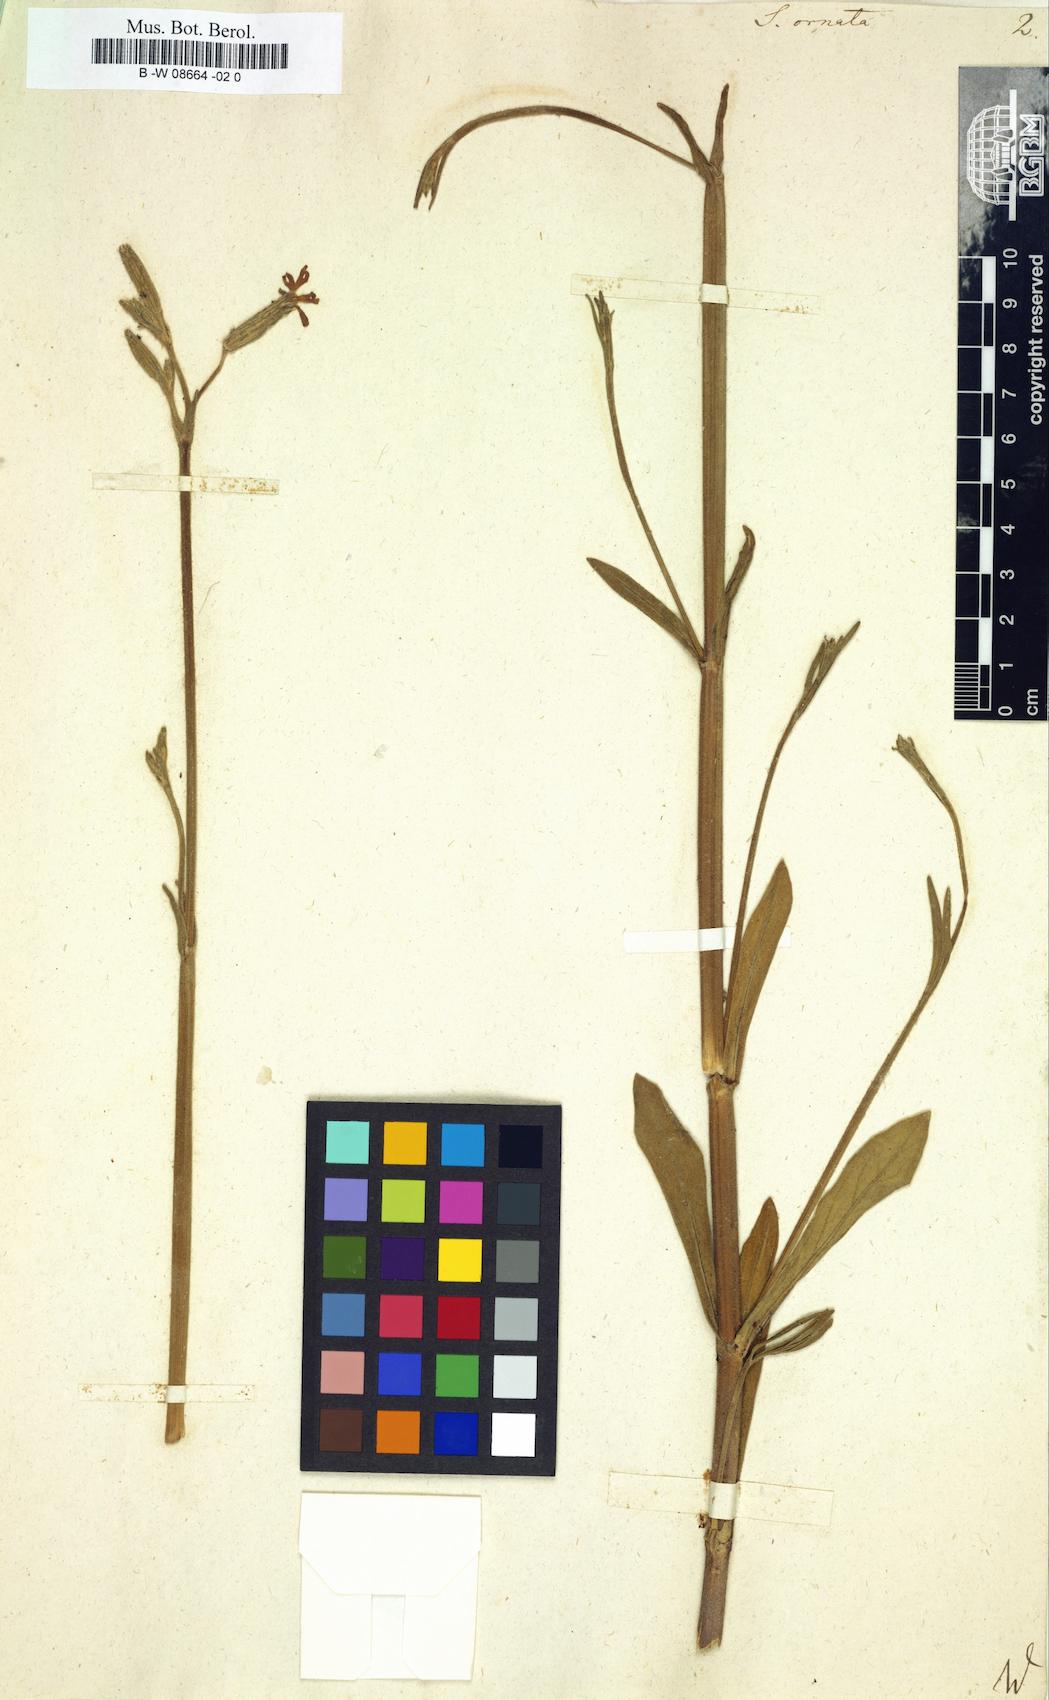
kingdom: Plantae
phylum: Tracheophyta
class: Magnoliopsida
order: Caryophyllales
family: Caryophyllaceae
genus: Silene
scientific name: Silene ornata
